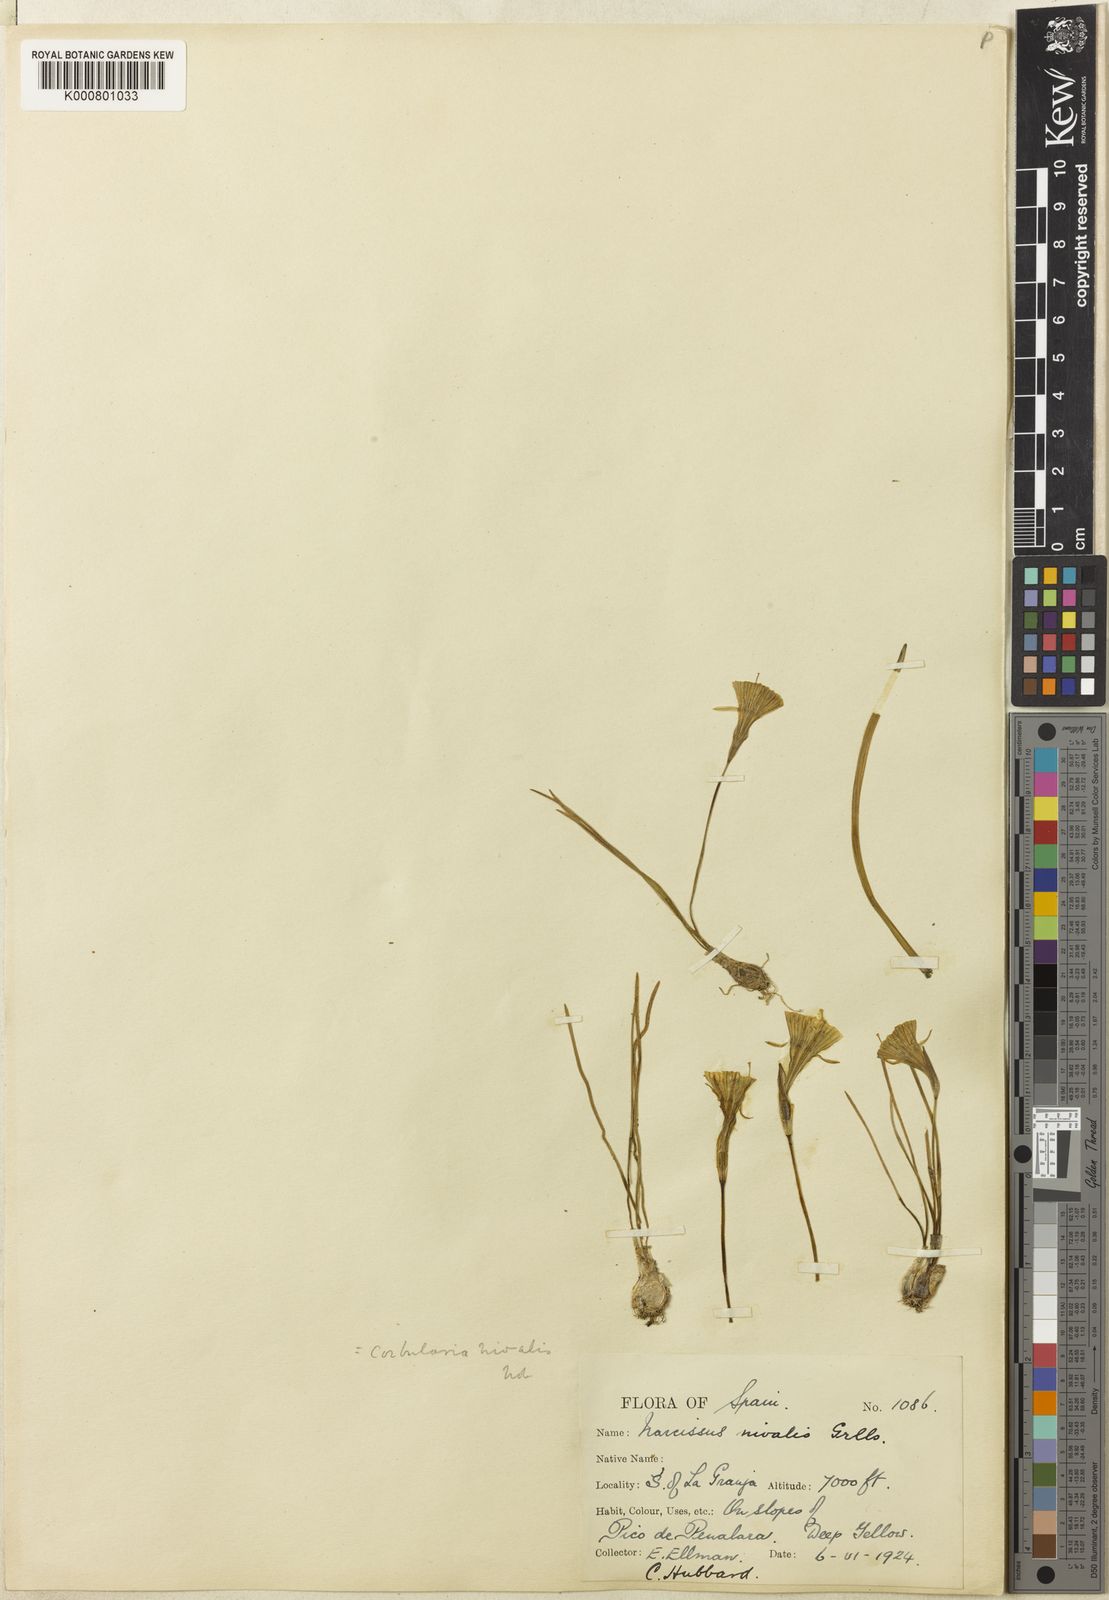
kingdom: Plantae
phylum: Tracheophyta
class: Liliopsida
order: Asparagales
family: Amaryllidaceae
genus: Narcissus
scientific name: Narcissus bulbocodium
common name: Hoop-petticoat daffodil
